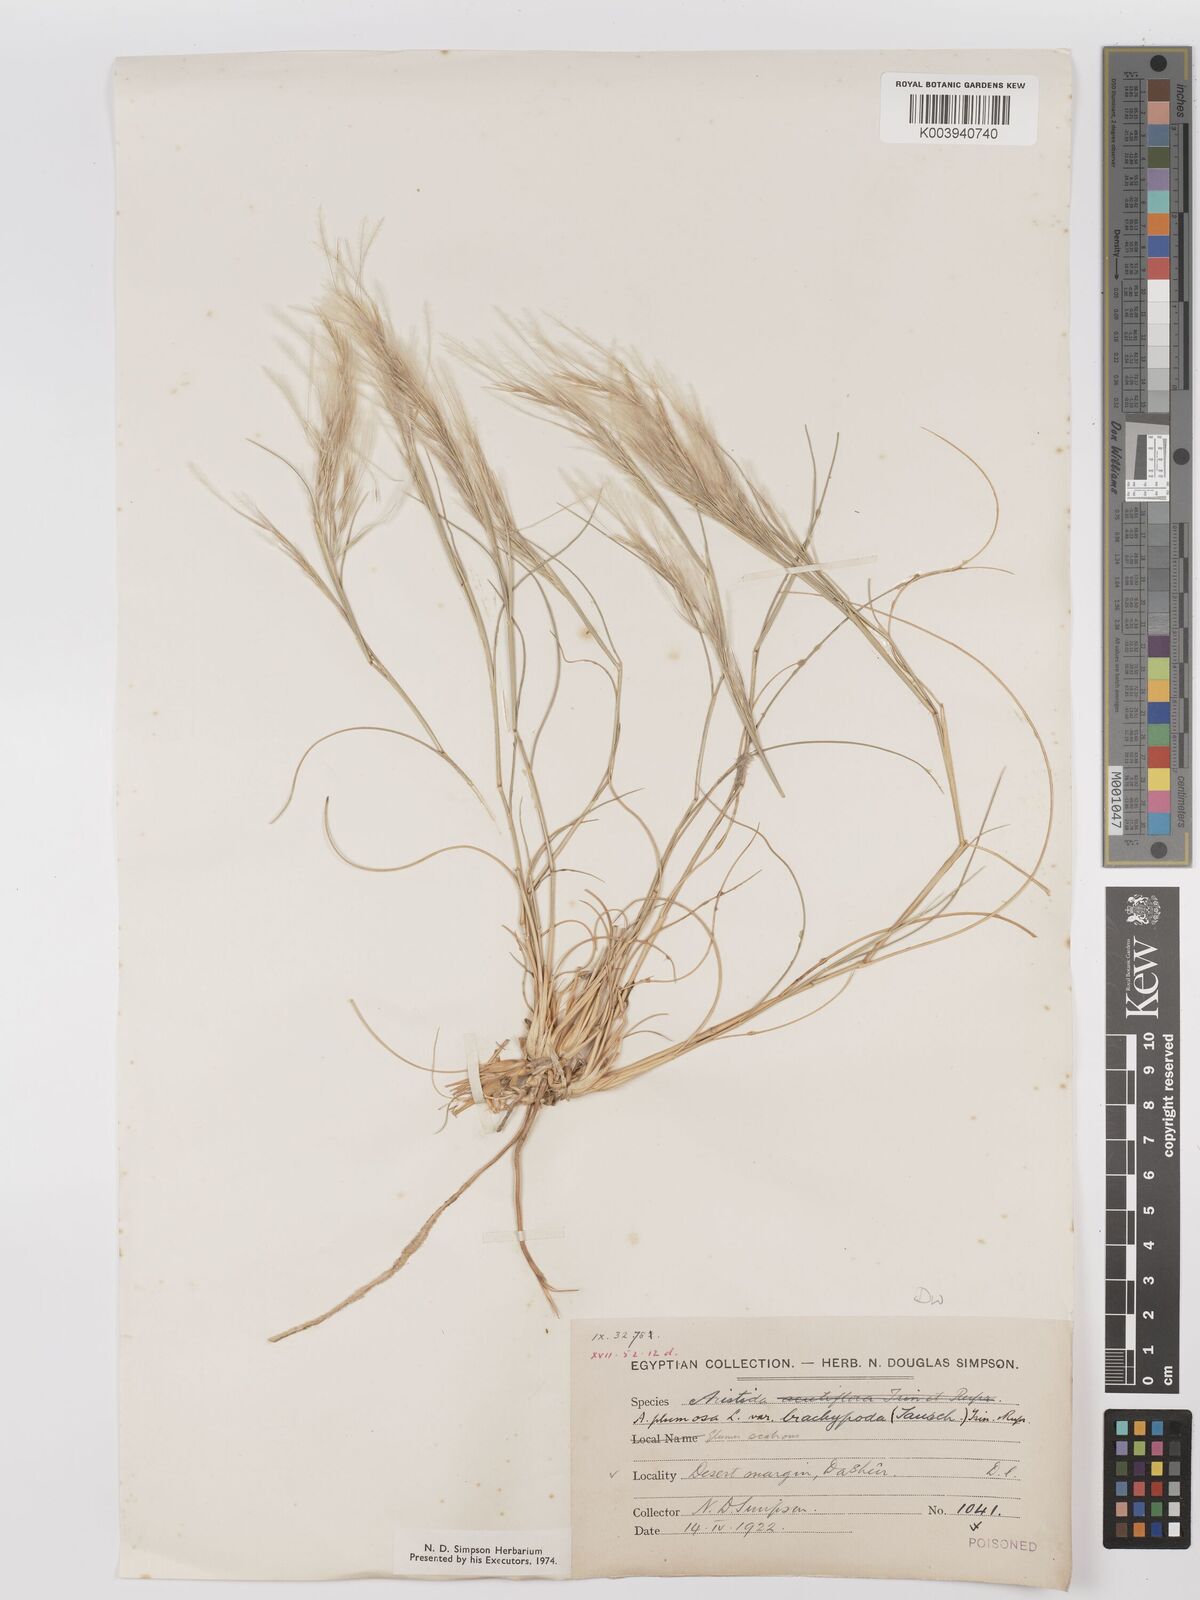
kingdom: Plantae
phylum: Tracheophyta
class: Liliopsida
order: Poales
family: Poaceae
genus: Stipagrostis
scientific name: Stipagrostis plumosa
